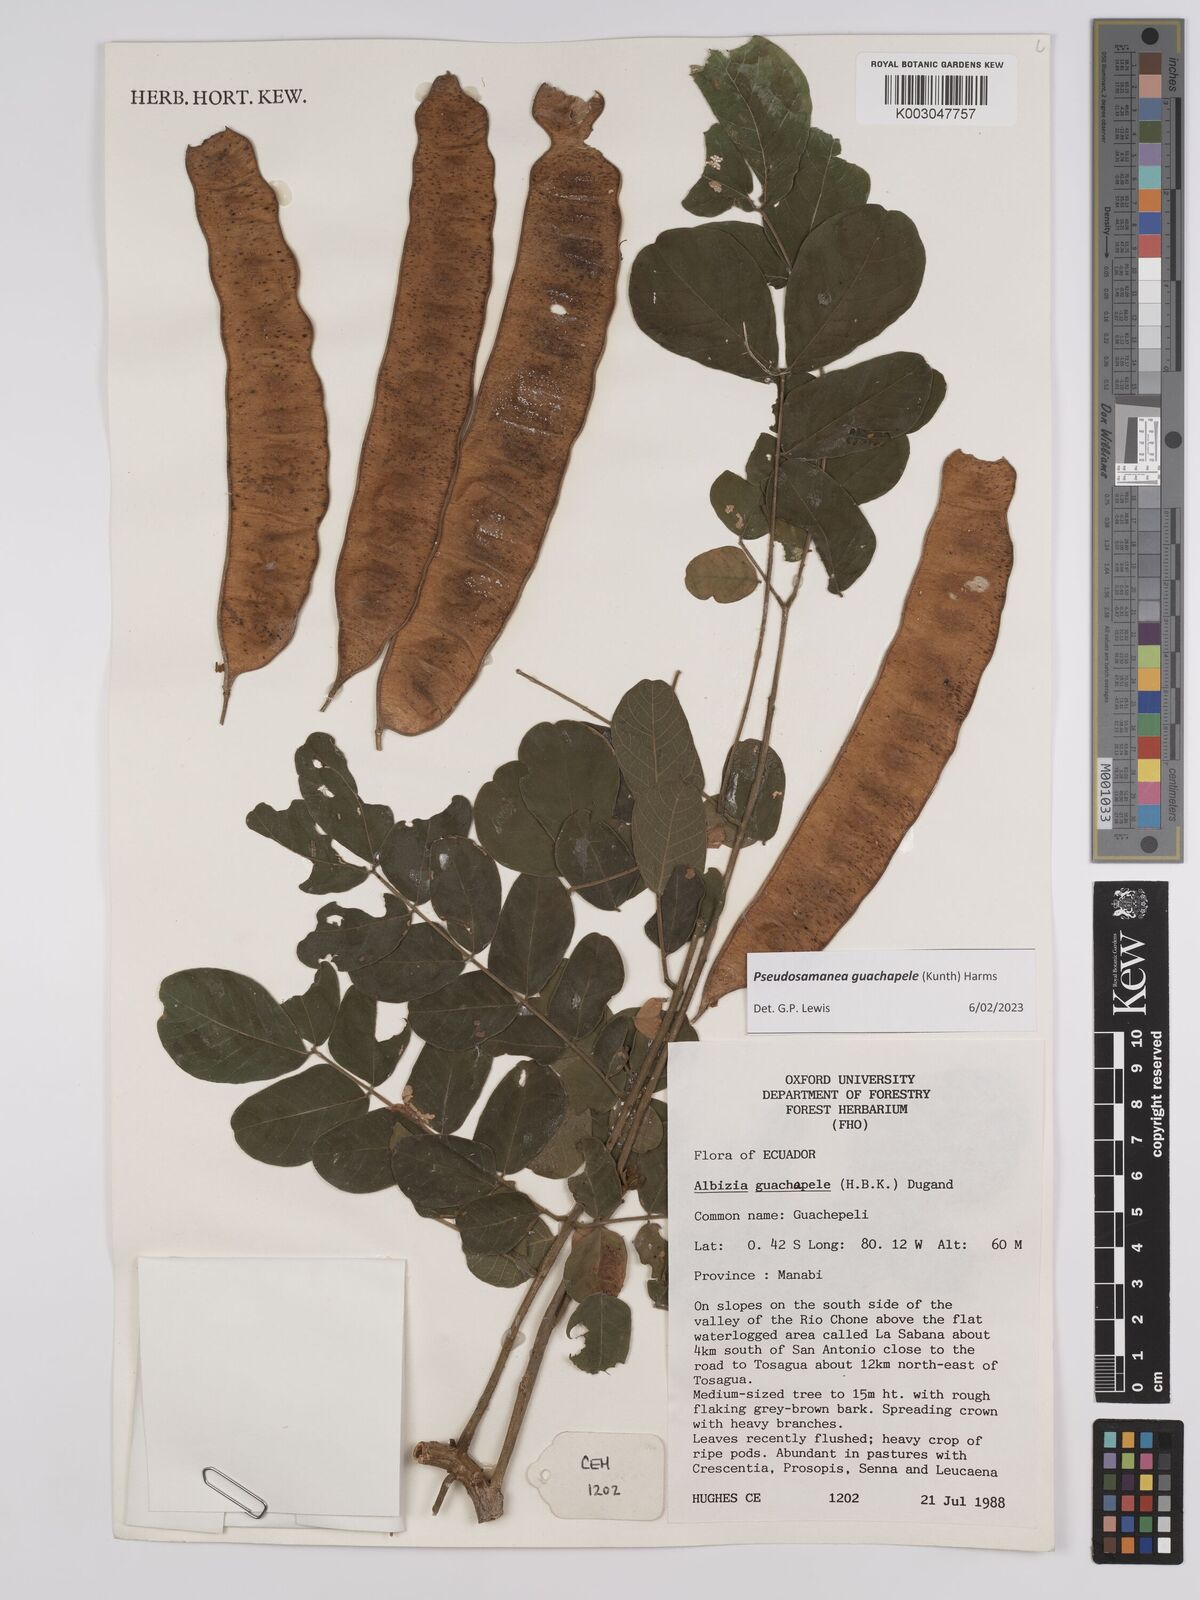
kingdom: Plantae
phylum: Tracheophyta
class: Magnoliopsida
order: Fabales
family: Fabaceae
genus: Pseudosamanea
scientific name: Pseudosamanea guachapele
